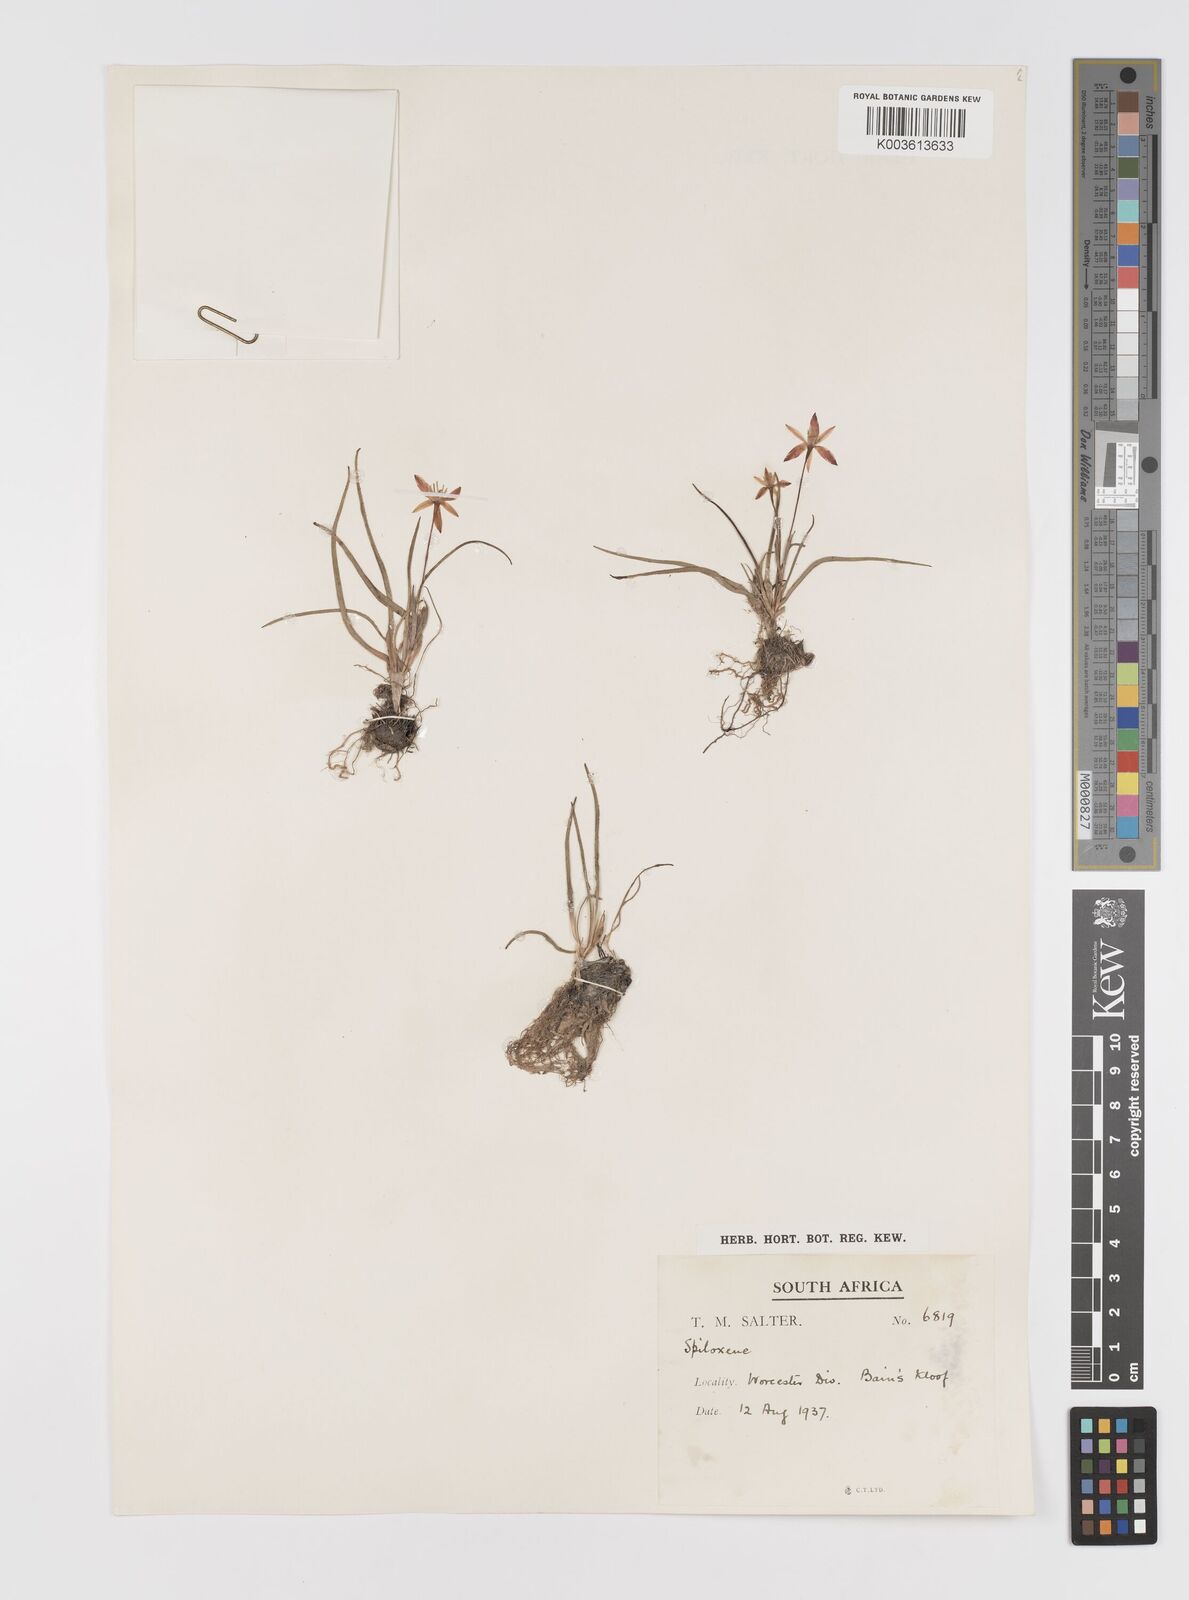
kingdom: Plantae
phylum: Tracheophyta
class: Liliopsida
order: Asparagales
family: Hypoxidaceae
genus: Pauridia
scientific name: Pauridia
